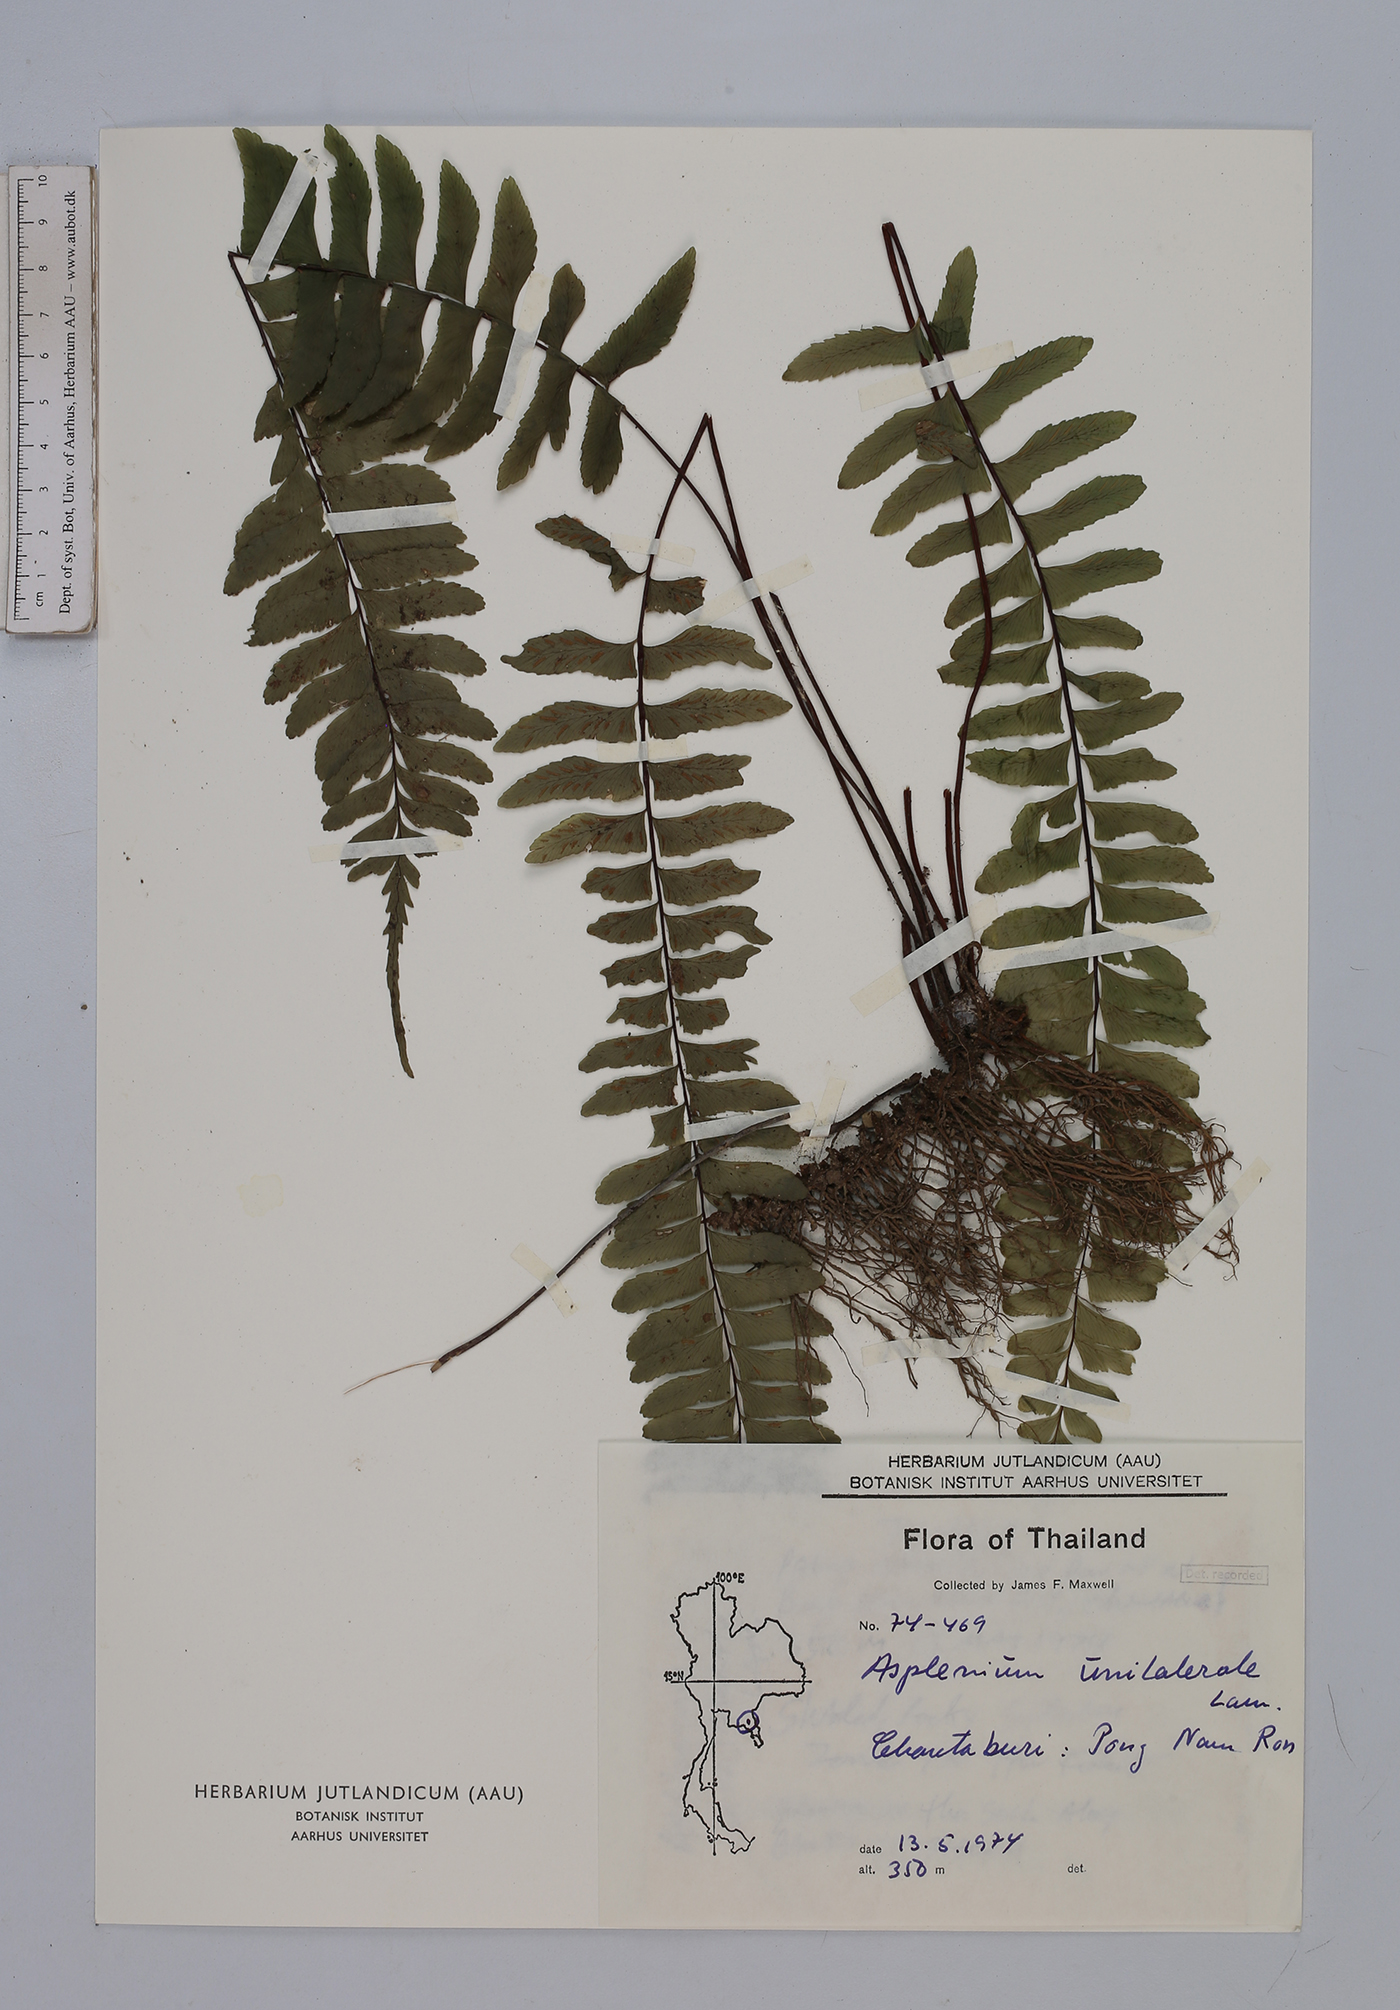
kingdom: Plantae
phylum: Tracheophyta
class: Polypodiopsida
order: Polypodiales
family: Aspleniaceae
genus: Hymenasplenium
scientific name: Hymenasplenium unilaterale
